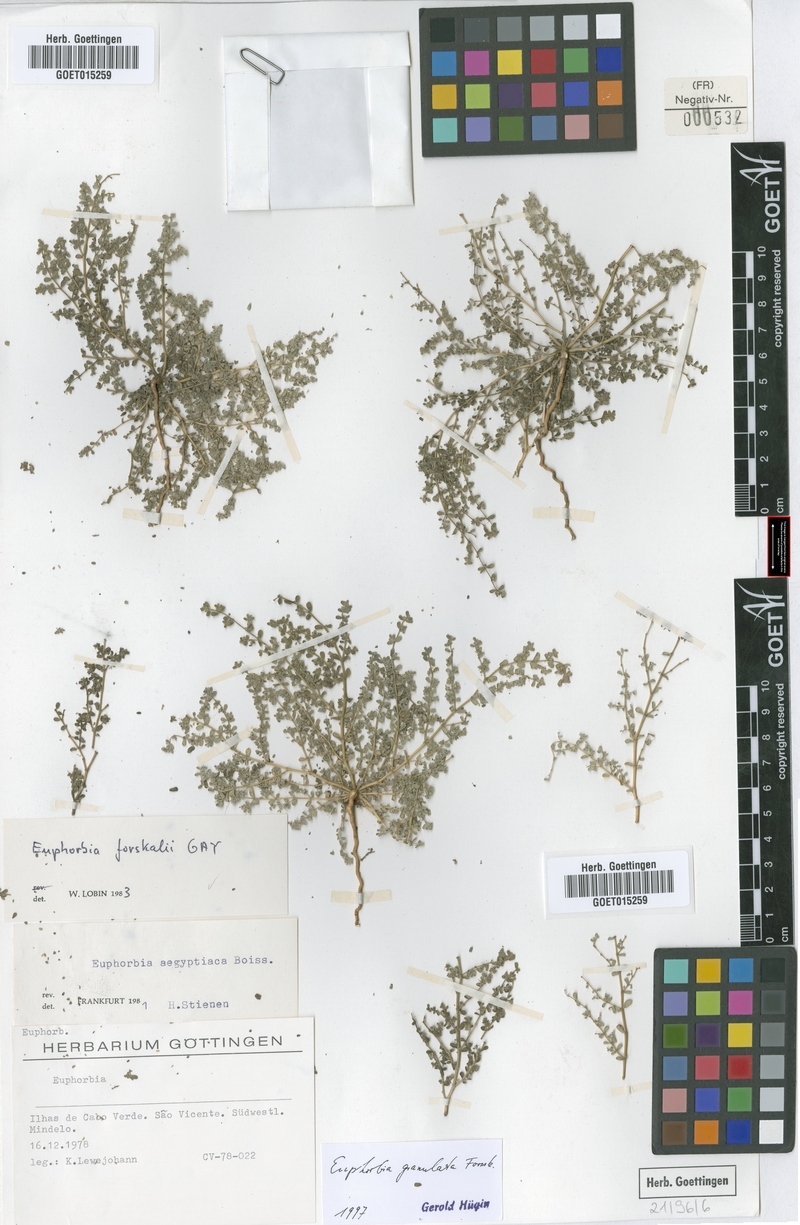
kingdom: Plantae
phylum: Tracheophyta
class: Magnoliopsida
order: Malpighiales
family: Euphorbiaceae
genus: Euphorbia
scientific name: Euphorbia granulata
